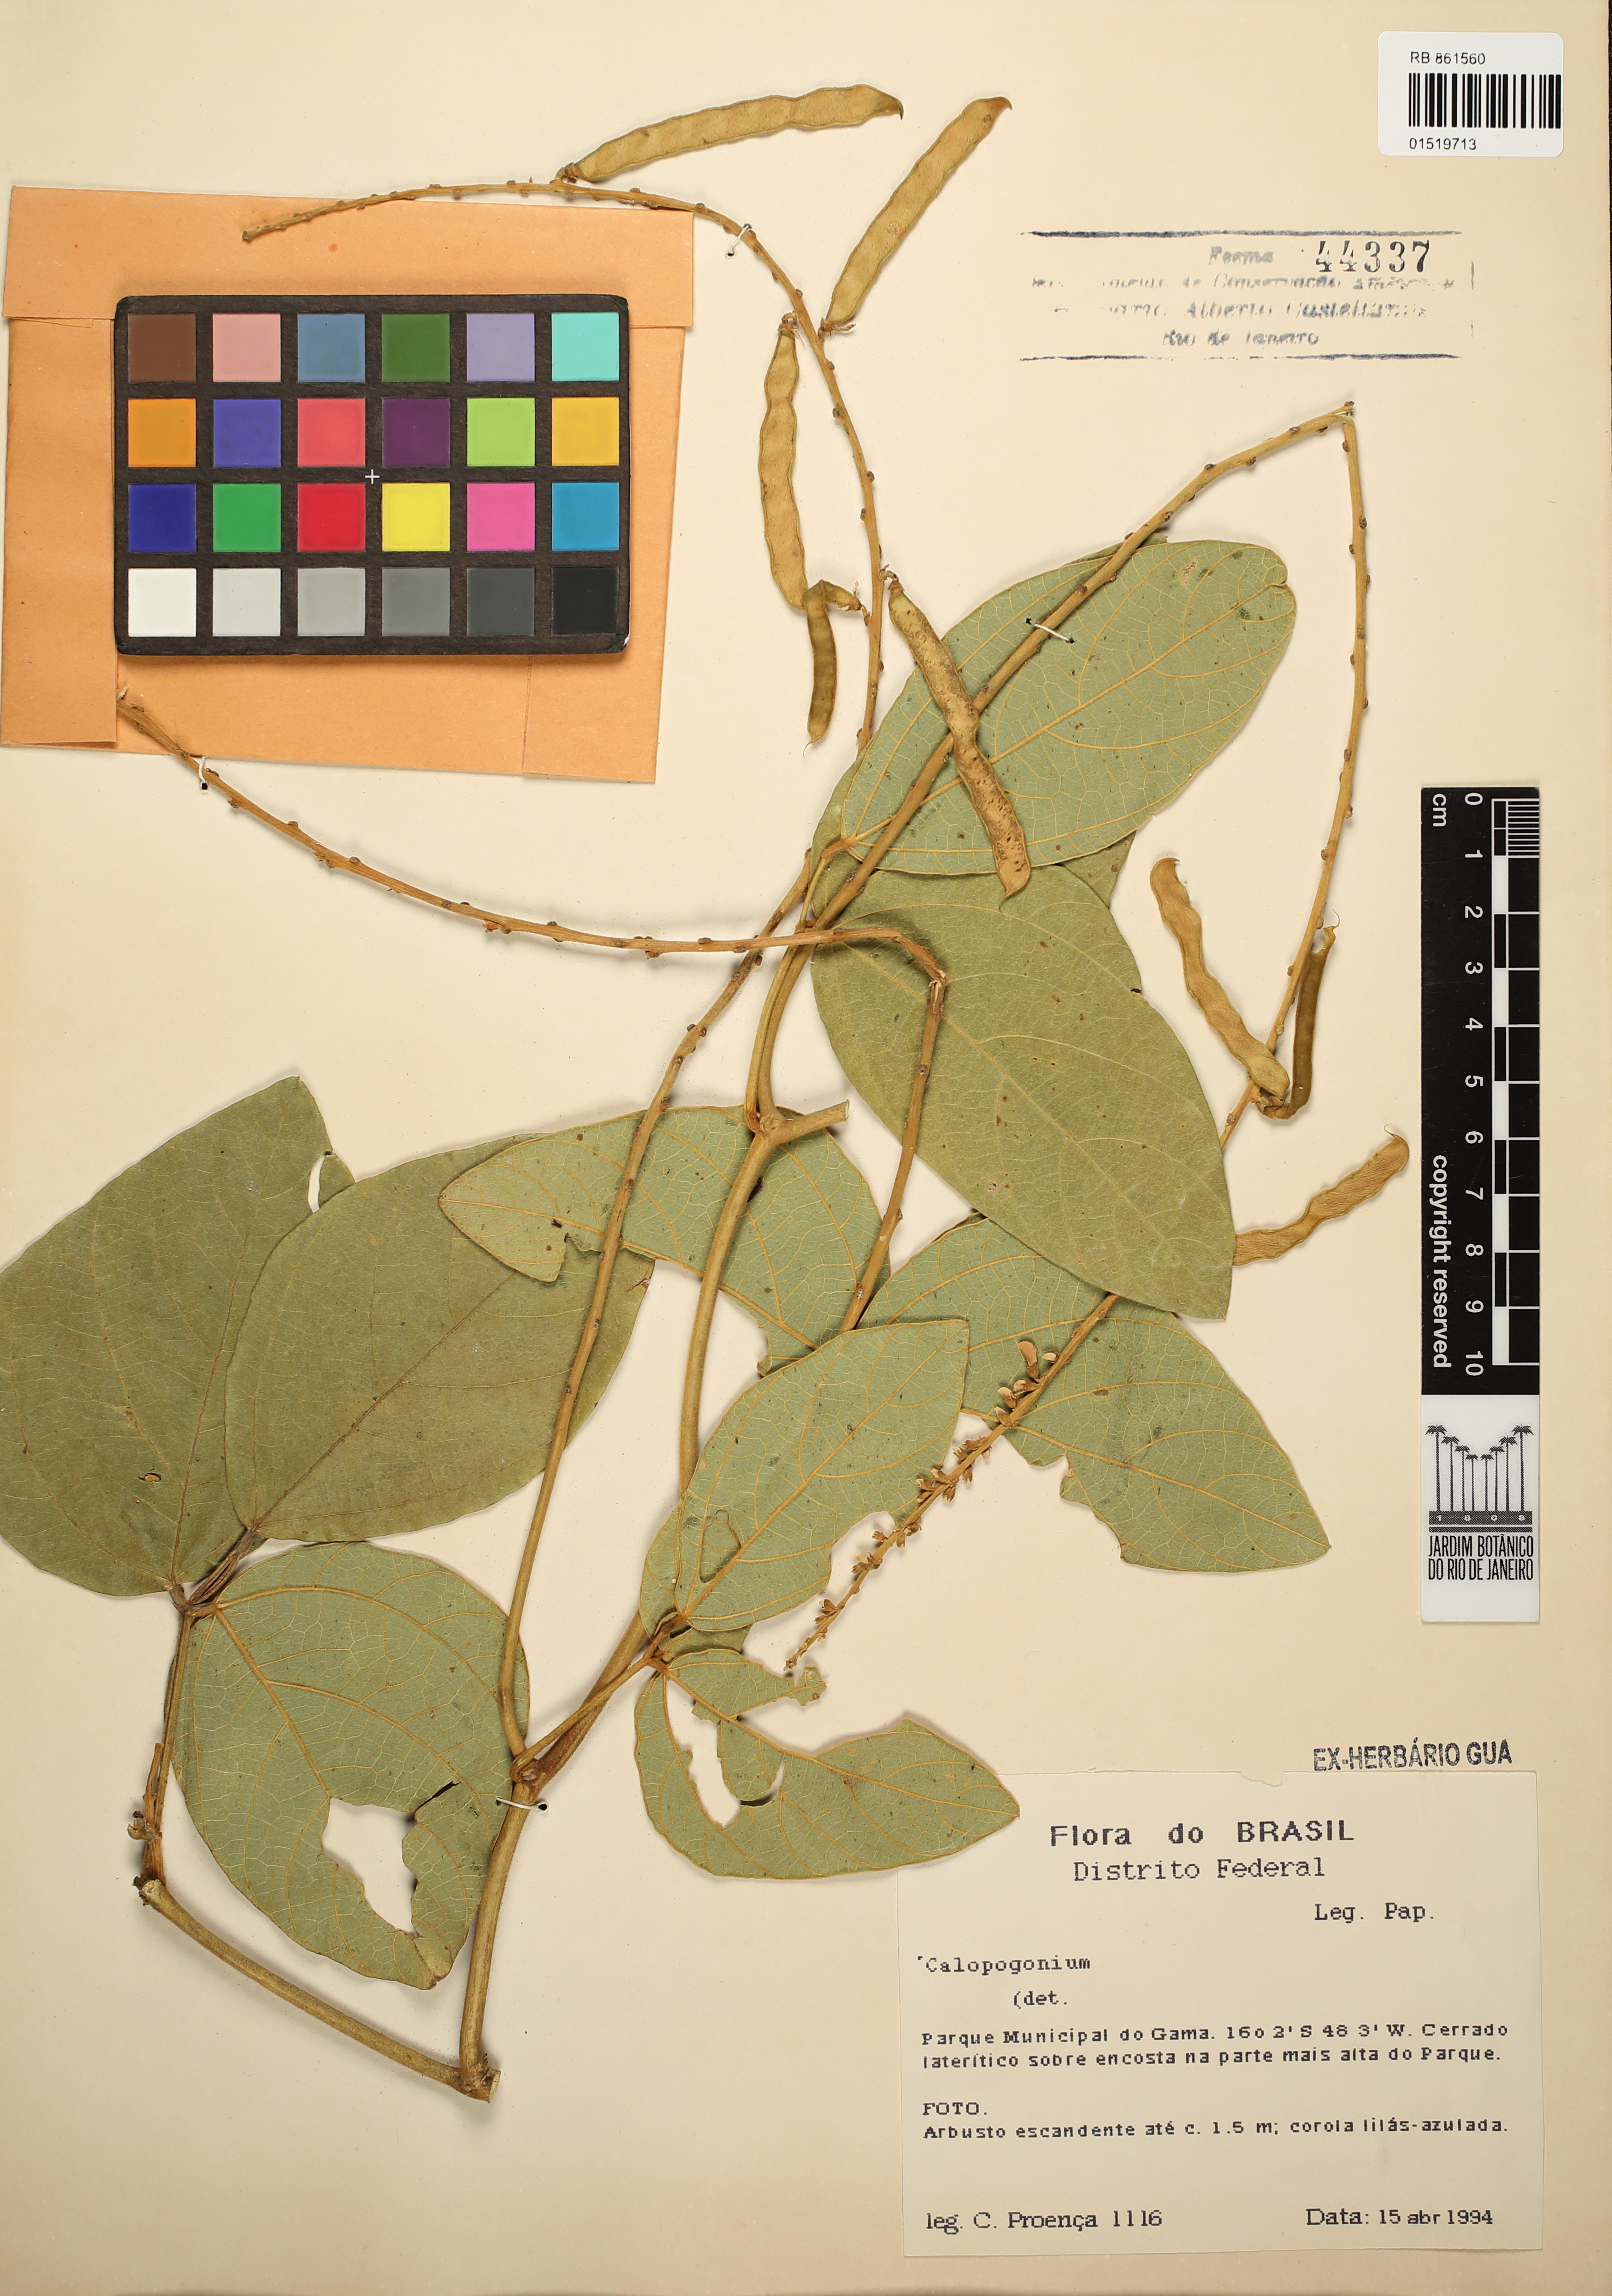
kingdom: Plantae
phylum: Tracheophyta
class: Magnoliopsida
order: Fabales
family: Fabaceae
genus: Calopogonium
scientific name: Calopogonium
